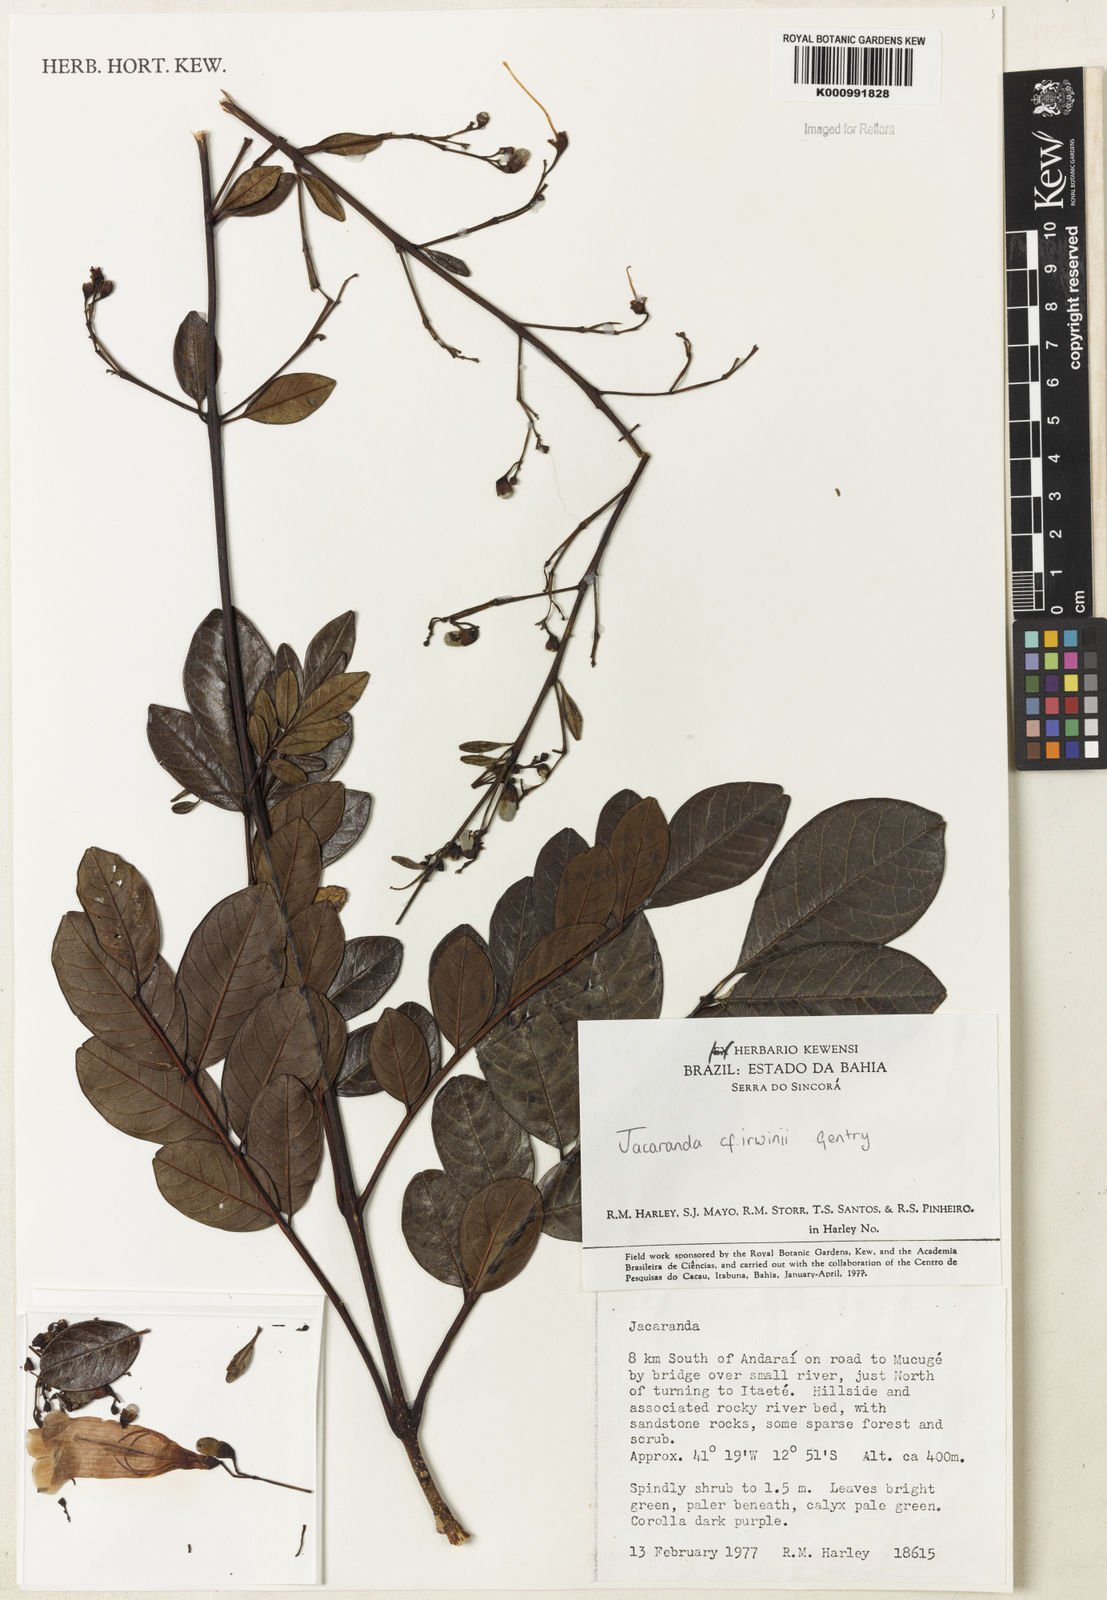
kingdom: Plantae
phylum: Tracheophyta
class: Magnoliopsida
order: Lamiales
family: Bignoniaceae
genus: Jacaranda
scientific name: Jacaranda irwinii
